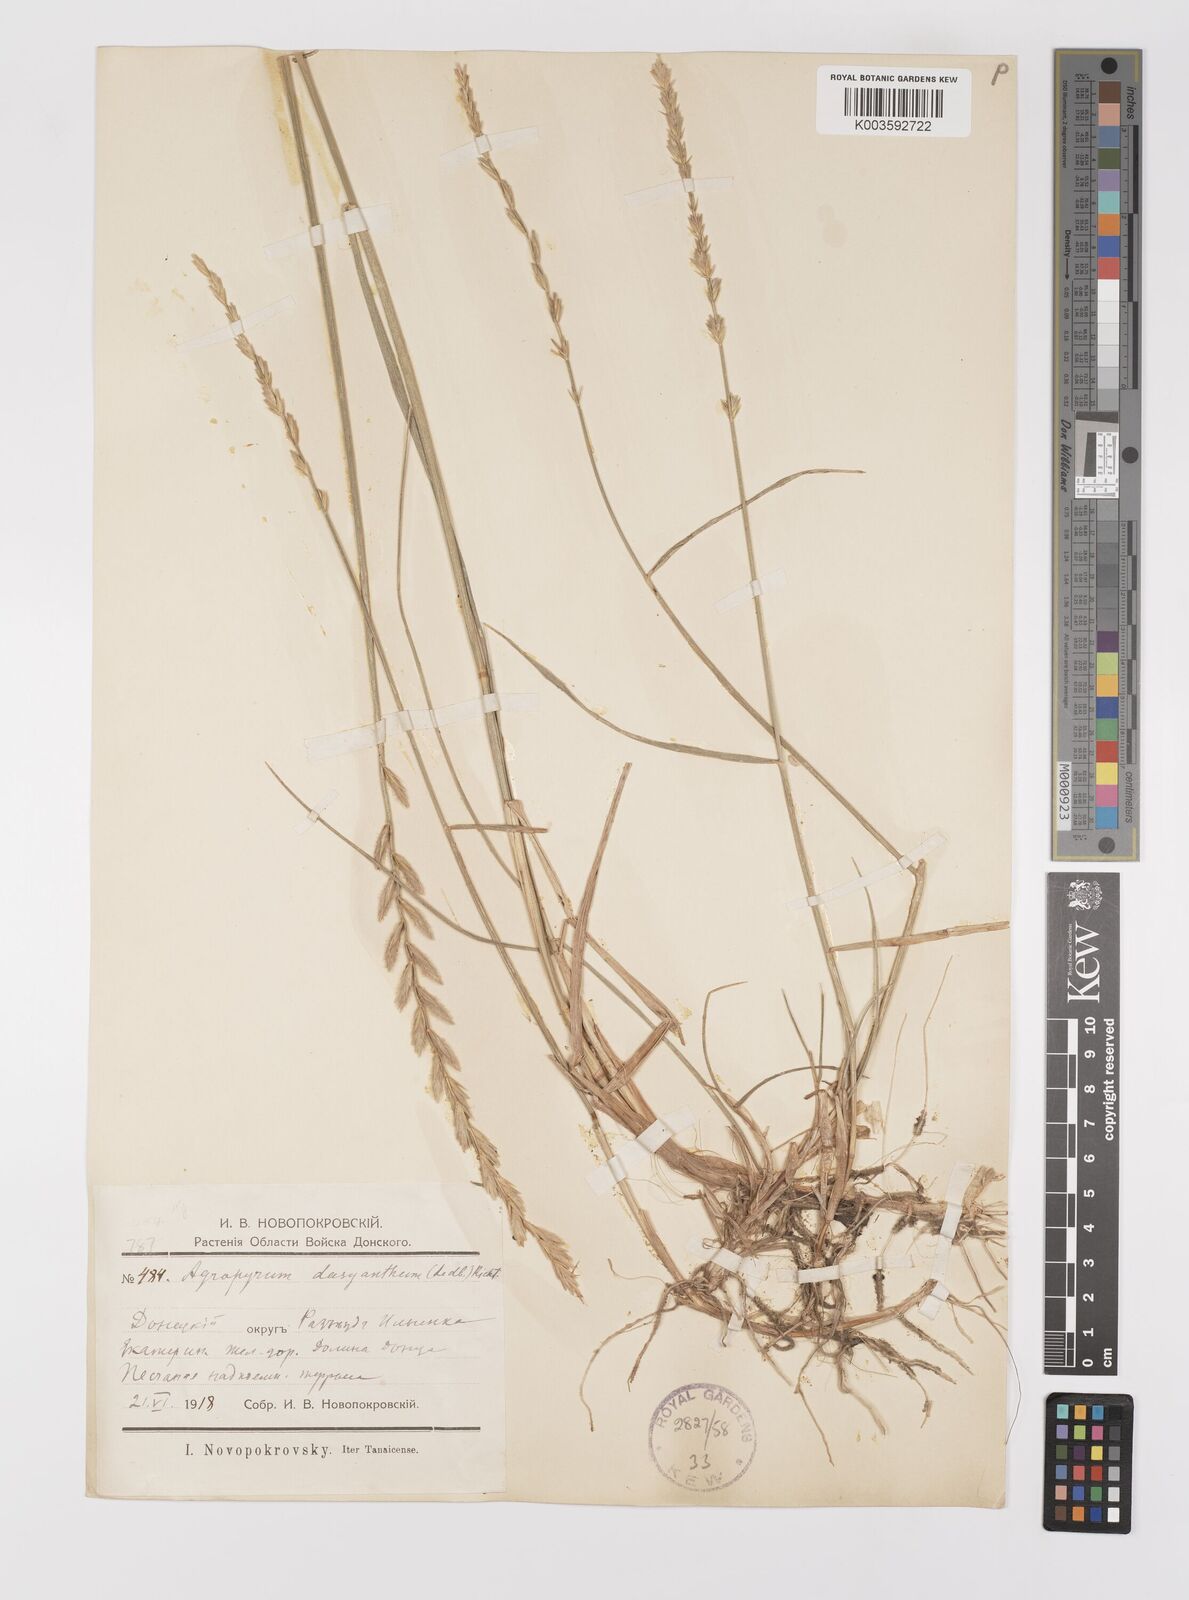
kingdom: Plantae
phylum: Tracheophyta
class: Liliopsida
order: Poales
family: Poaceae
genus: Agropyron
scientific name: Agropyron dasyanthum
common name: Edge flowered crested wheatgrass
